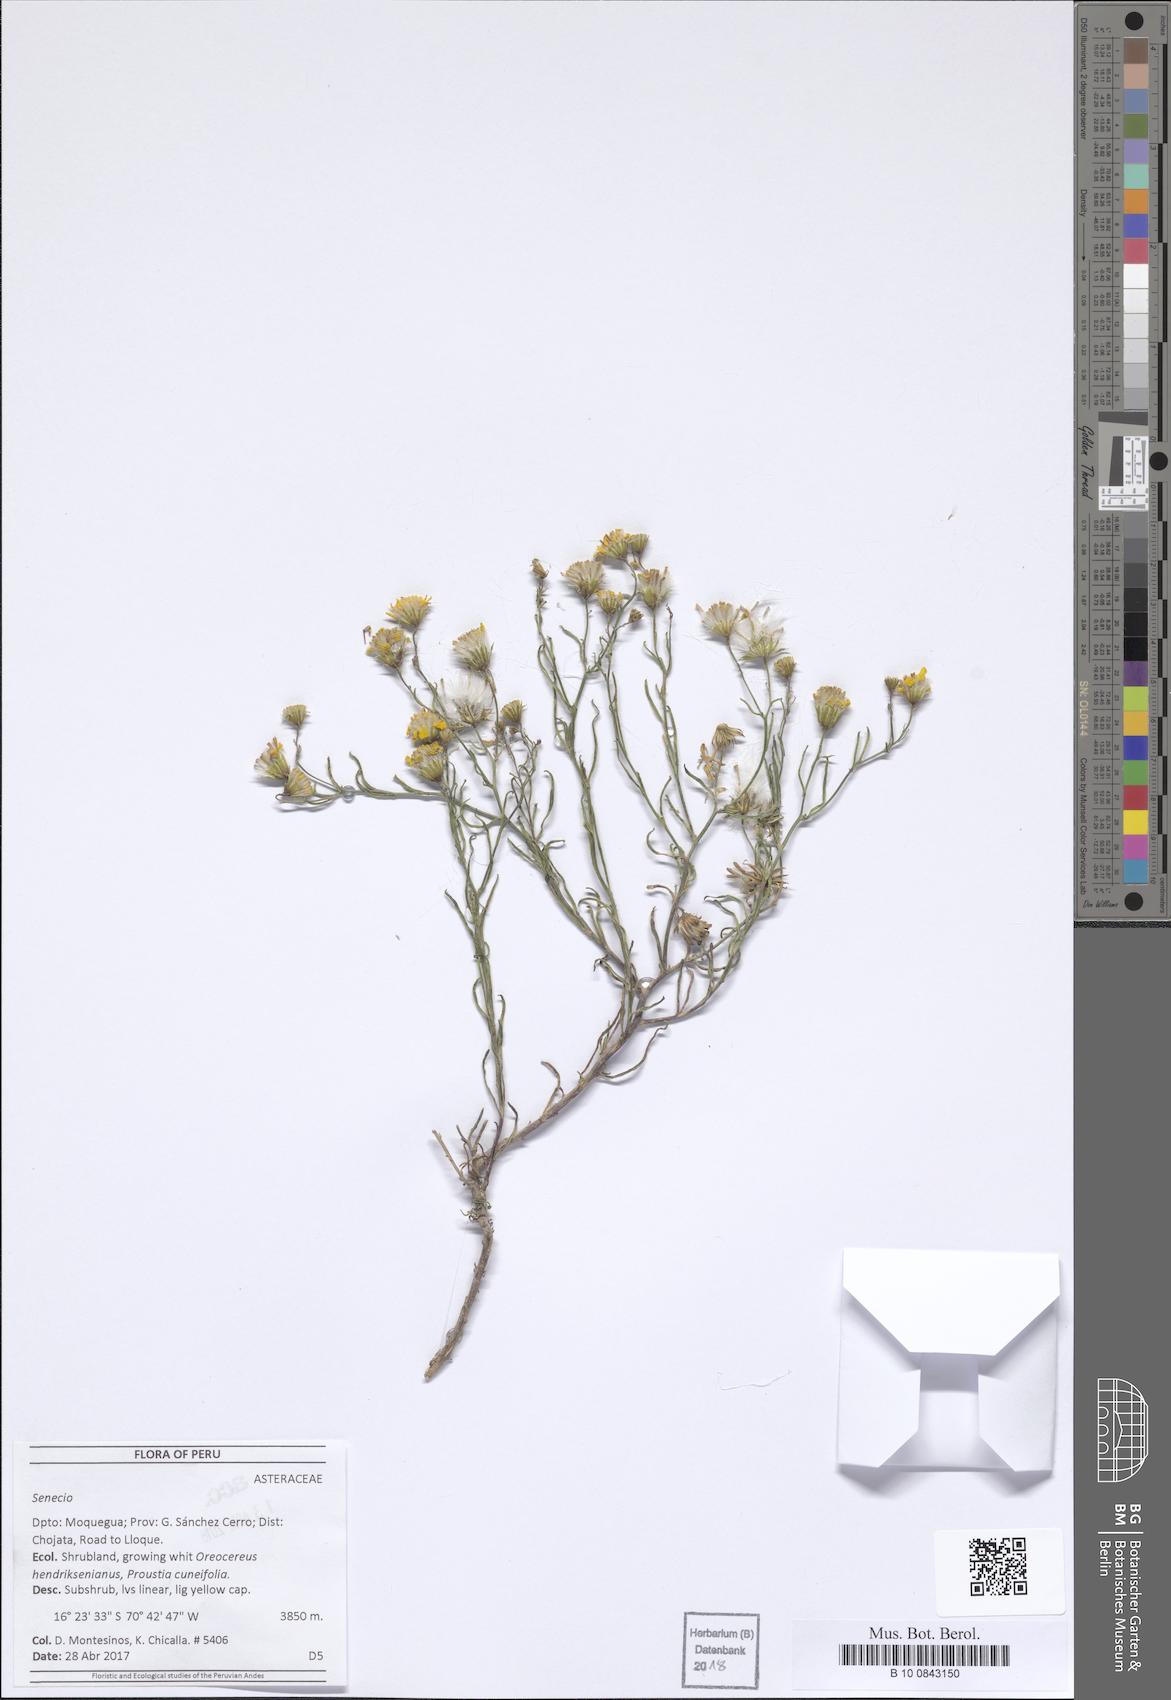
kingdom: Plantae
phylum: Tracheophyta
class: Magnoliopsida
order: Asterales
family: Asteraceae
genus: Senecio
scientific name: Senecio
